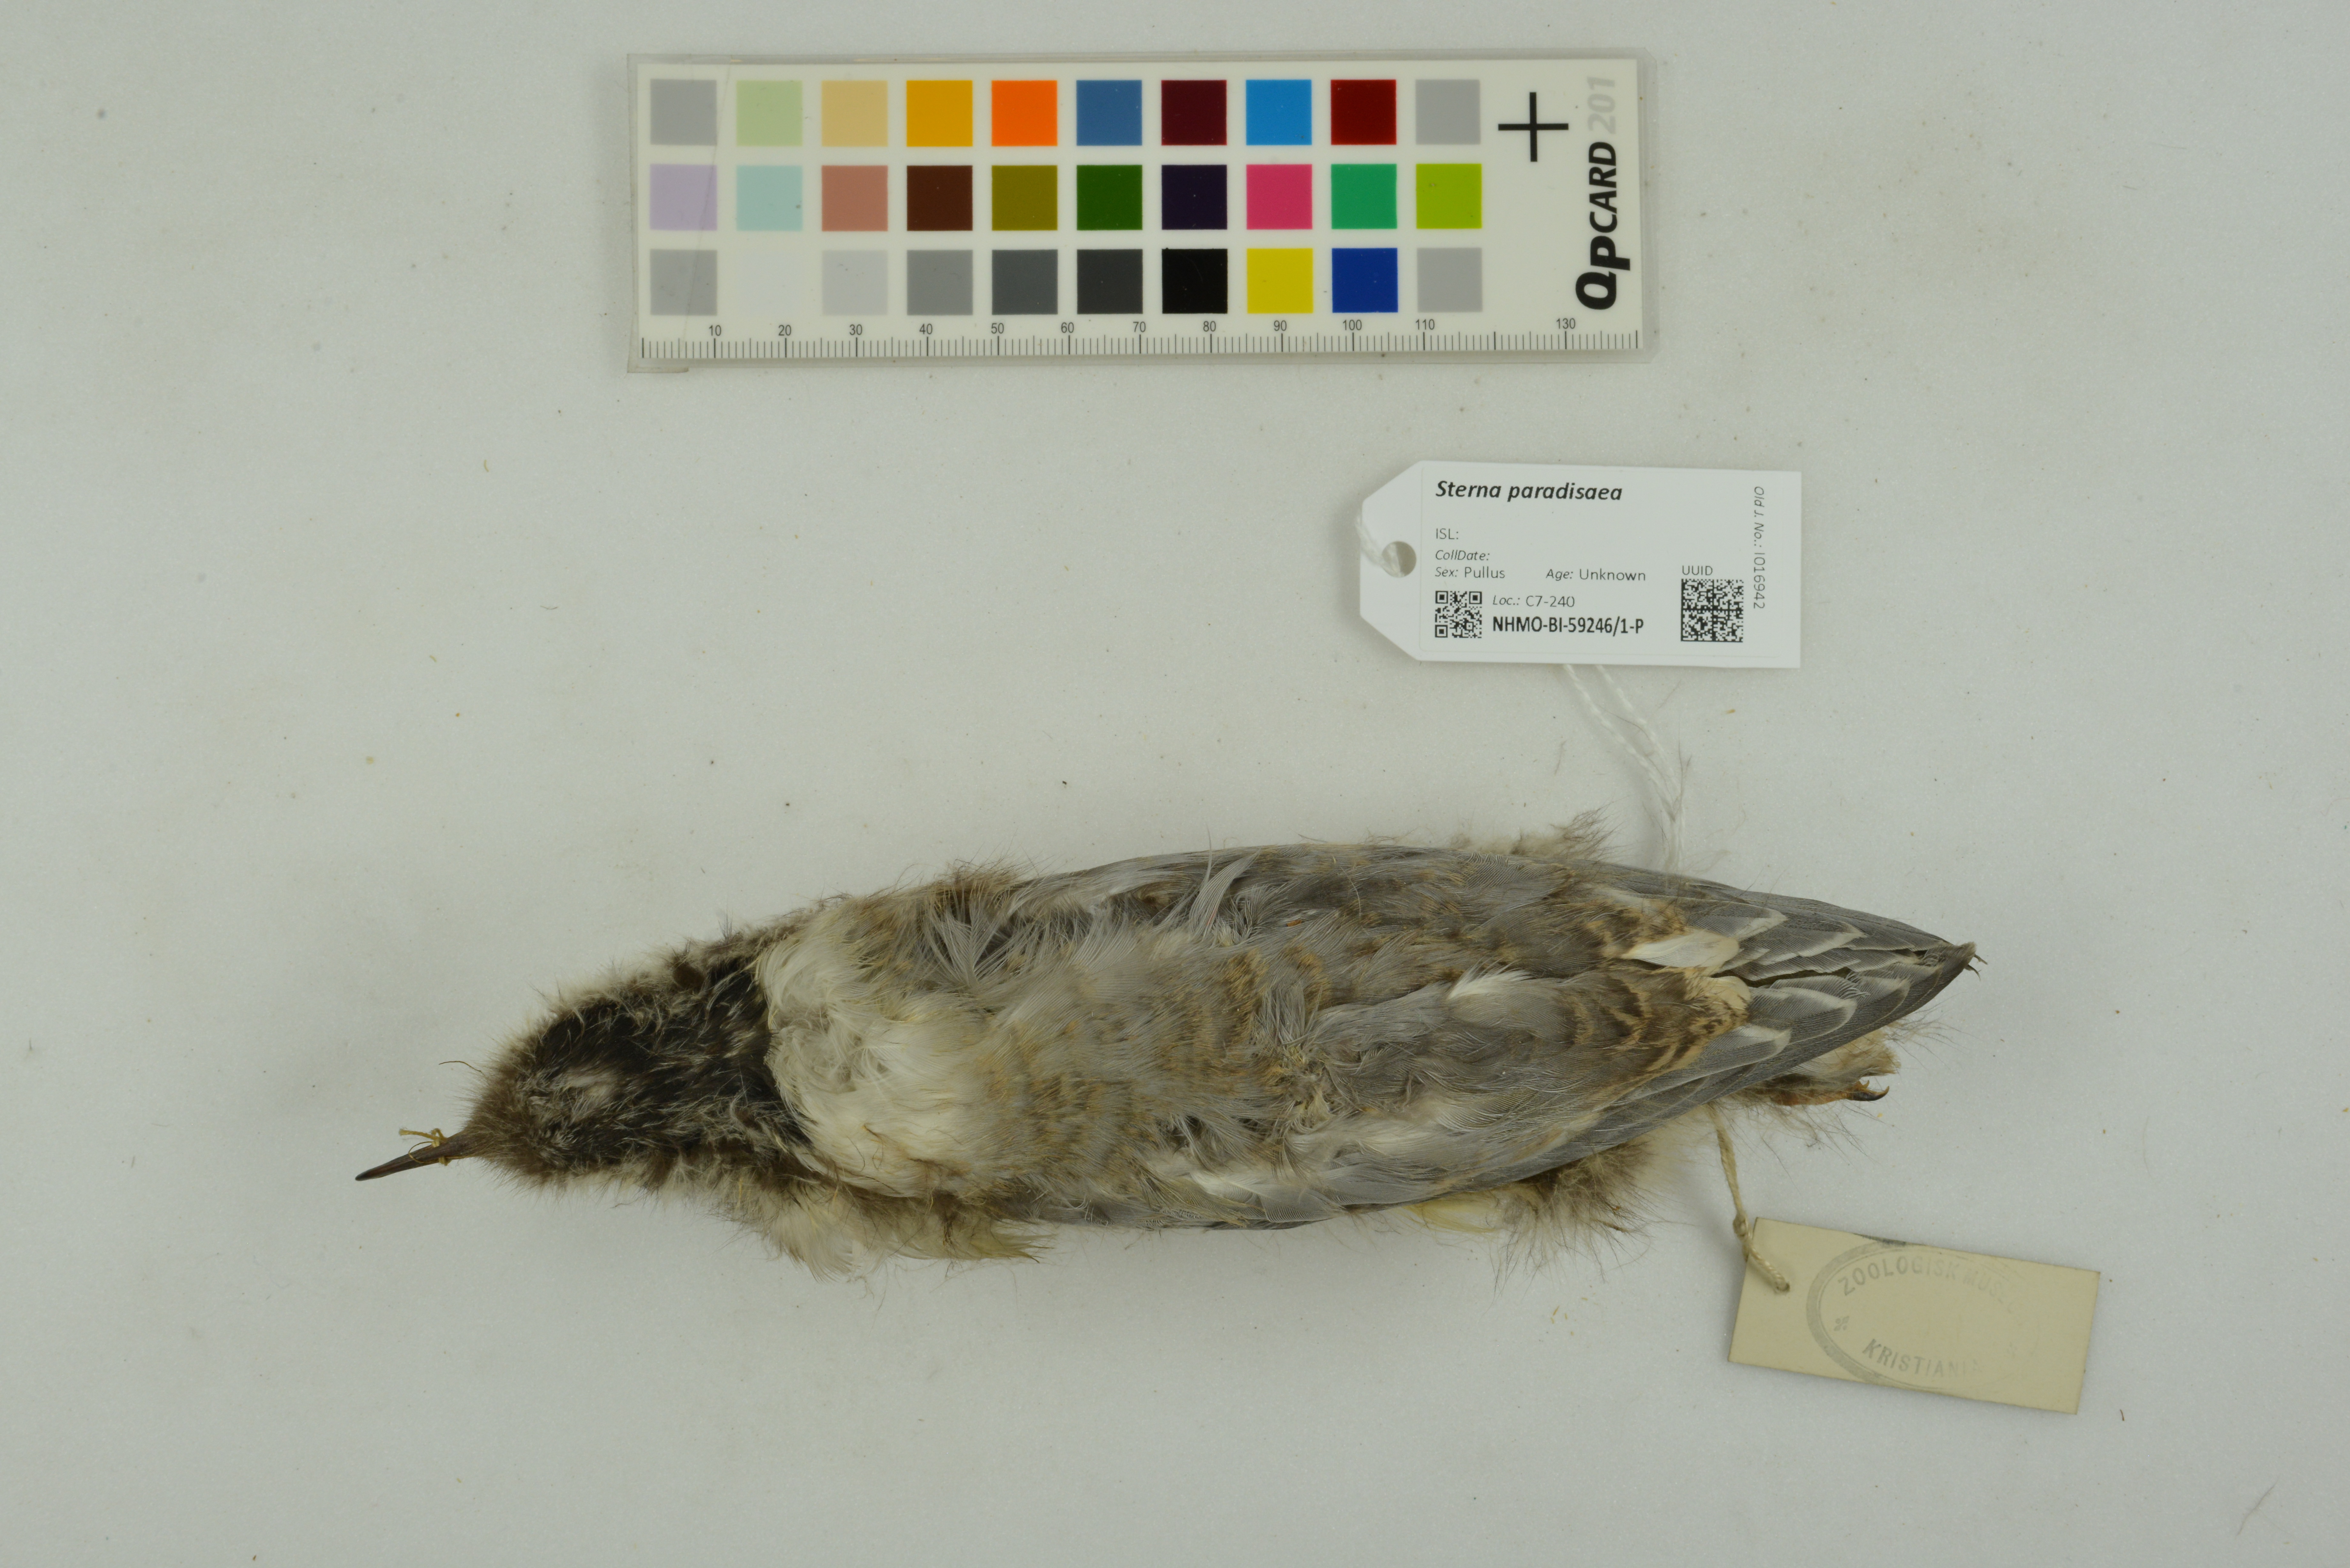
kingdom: Animalia
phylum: Chordata
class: Aves
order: Charadriiformes
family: Laridae
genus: Sterna
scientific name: Sterna paradisaea
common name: Arctic tern
